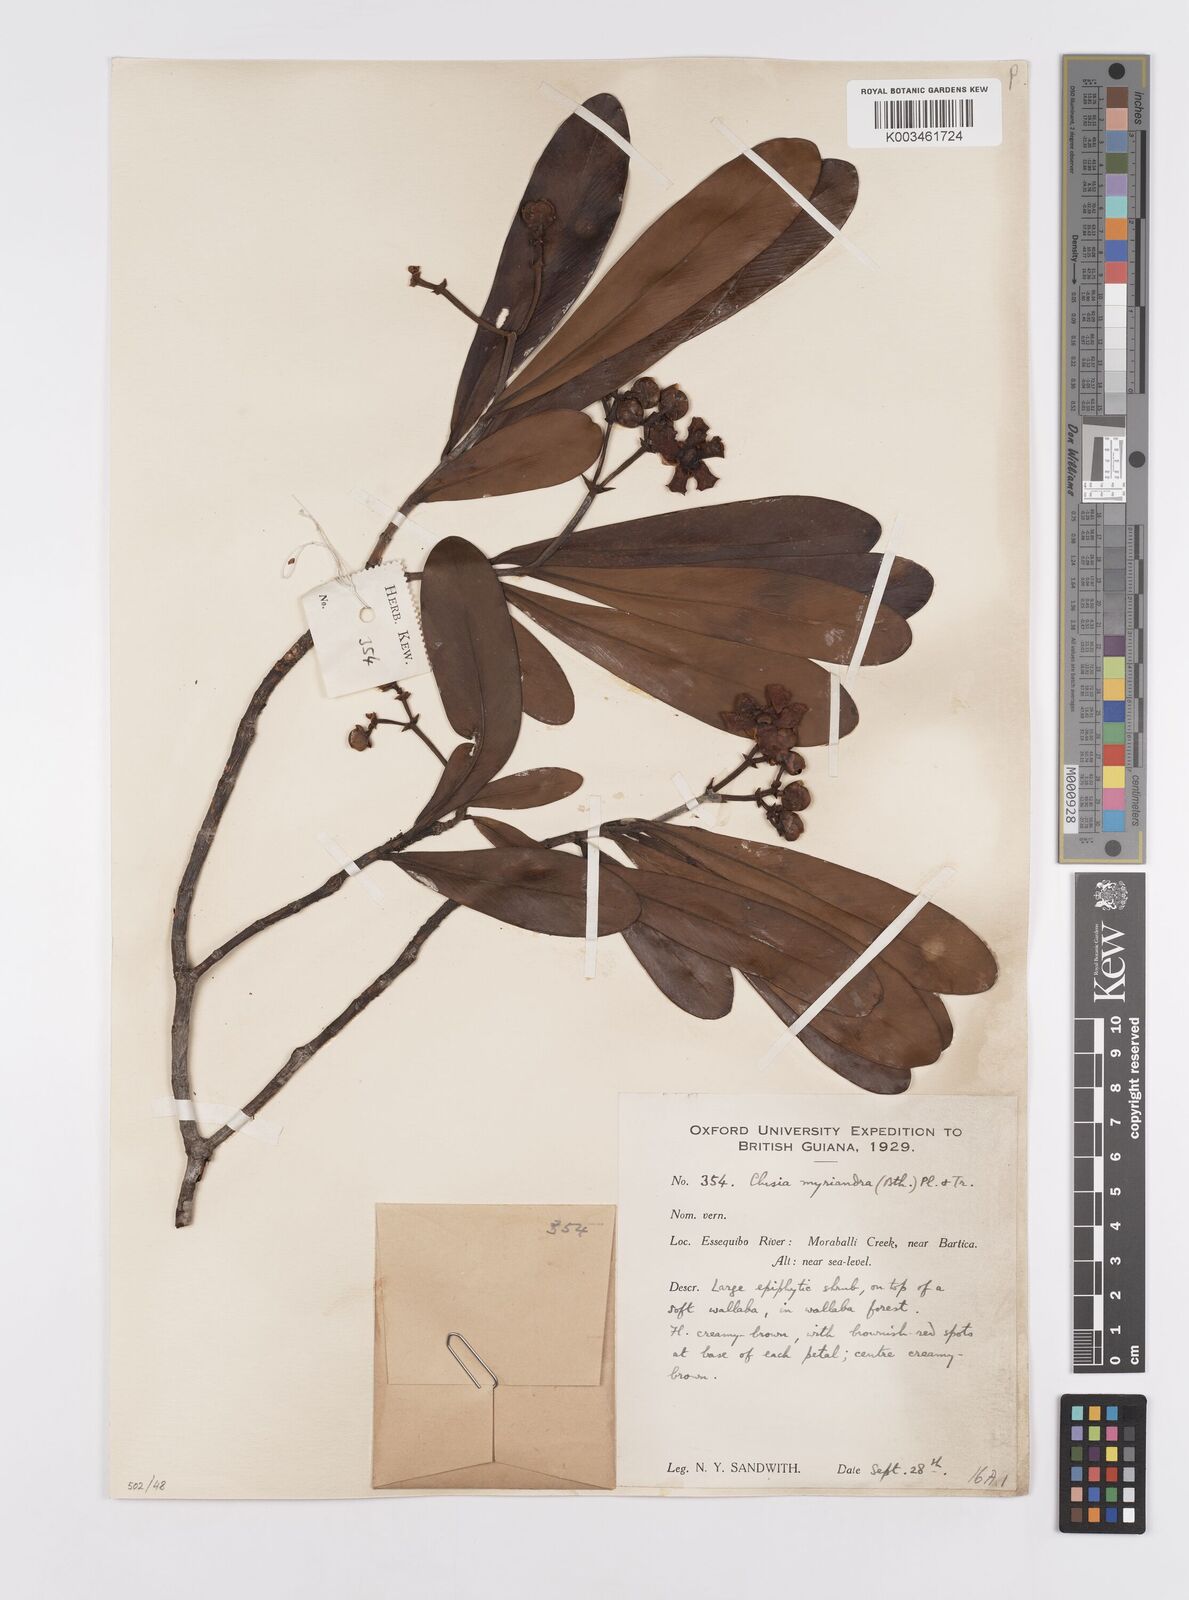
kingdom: Plantae
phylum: Tracheophyta
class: Magnoliopsida
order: Malpighiales
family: Clusiaceae
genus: Clusia
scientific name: Clusia myriandra
